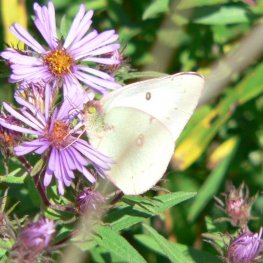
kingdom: Animalia
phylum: Arthropoda
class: Insecta
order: Lepidoptera
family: Pieridae
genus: Colias
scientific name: Colias philodice
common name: Clouded Sulphur
